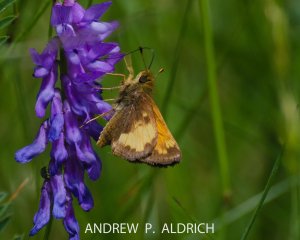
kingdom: Animalia
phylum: Arthropoda
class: Insecta
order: Lepidoptera
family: Hesperiidae
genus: Lon
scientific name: Lon hobomok
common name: Hobomok Skipper
